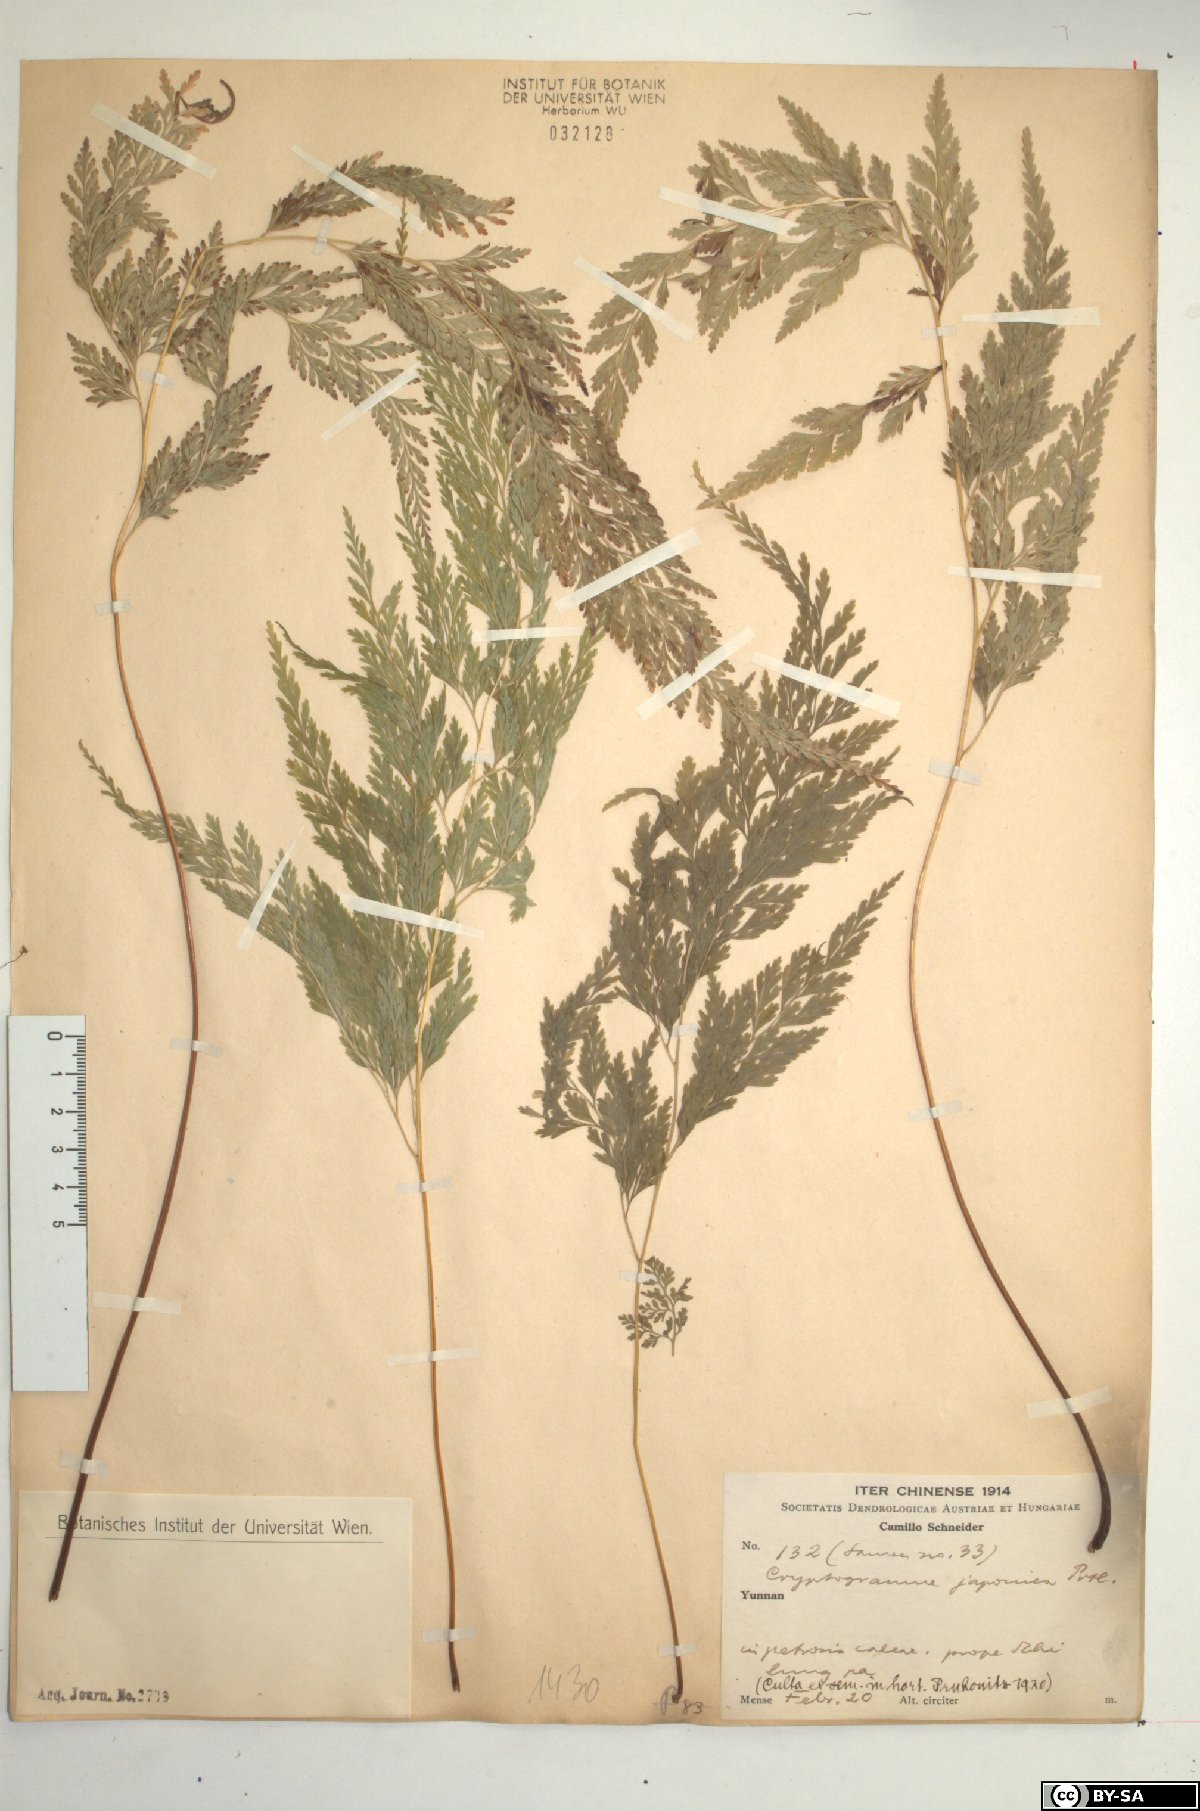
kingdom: Plantae
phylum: Tracheophyta
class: Polypodiopsida
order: Polypodiales
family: Pteridaceae
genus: Onychium
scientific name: Onychium japonicum
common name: Carrot fern
